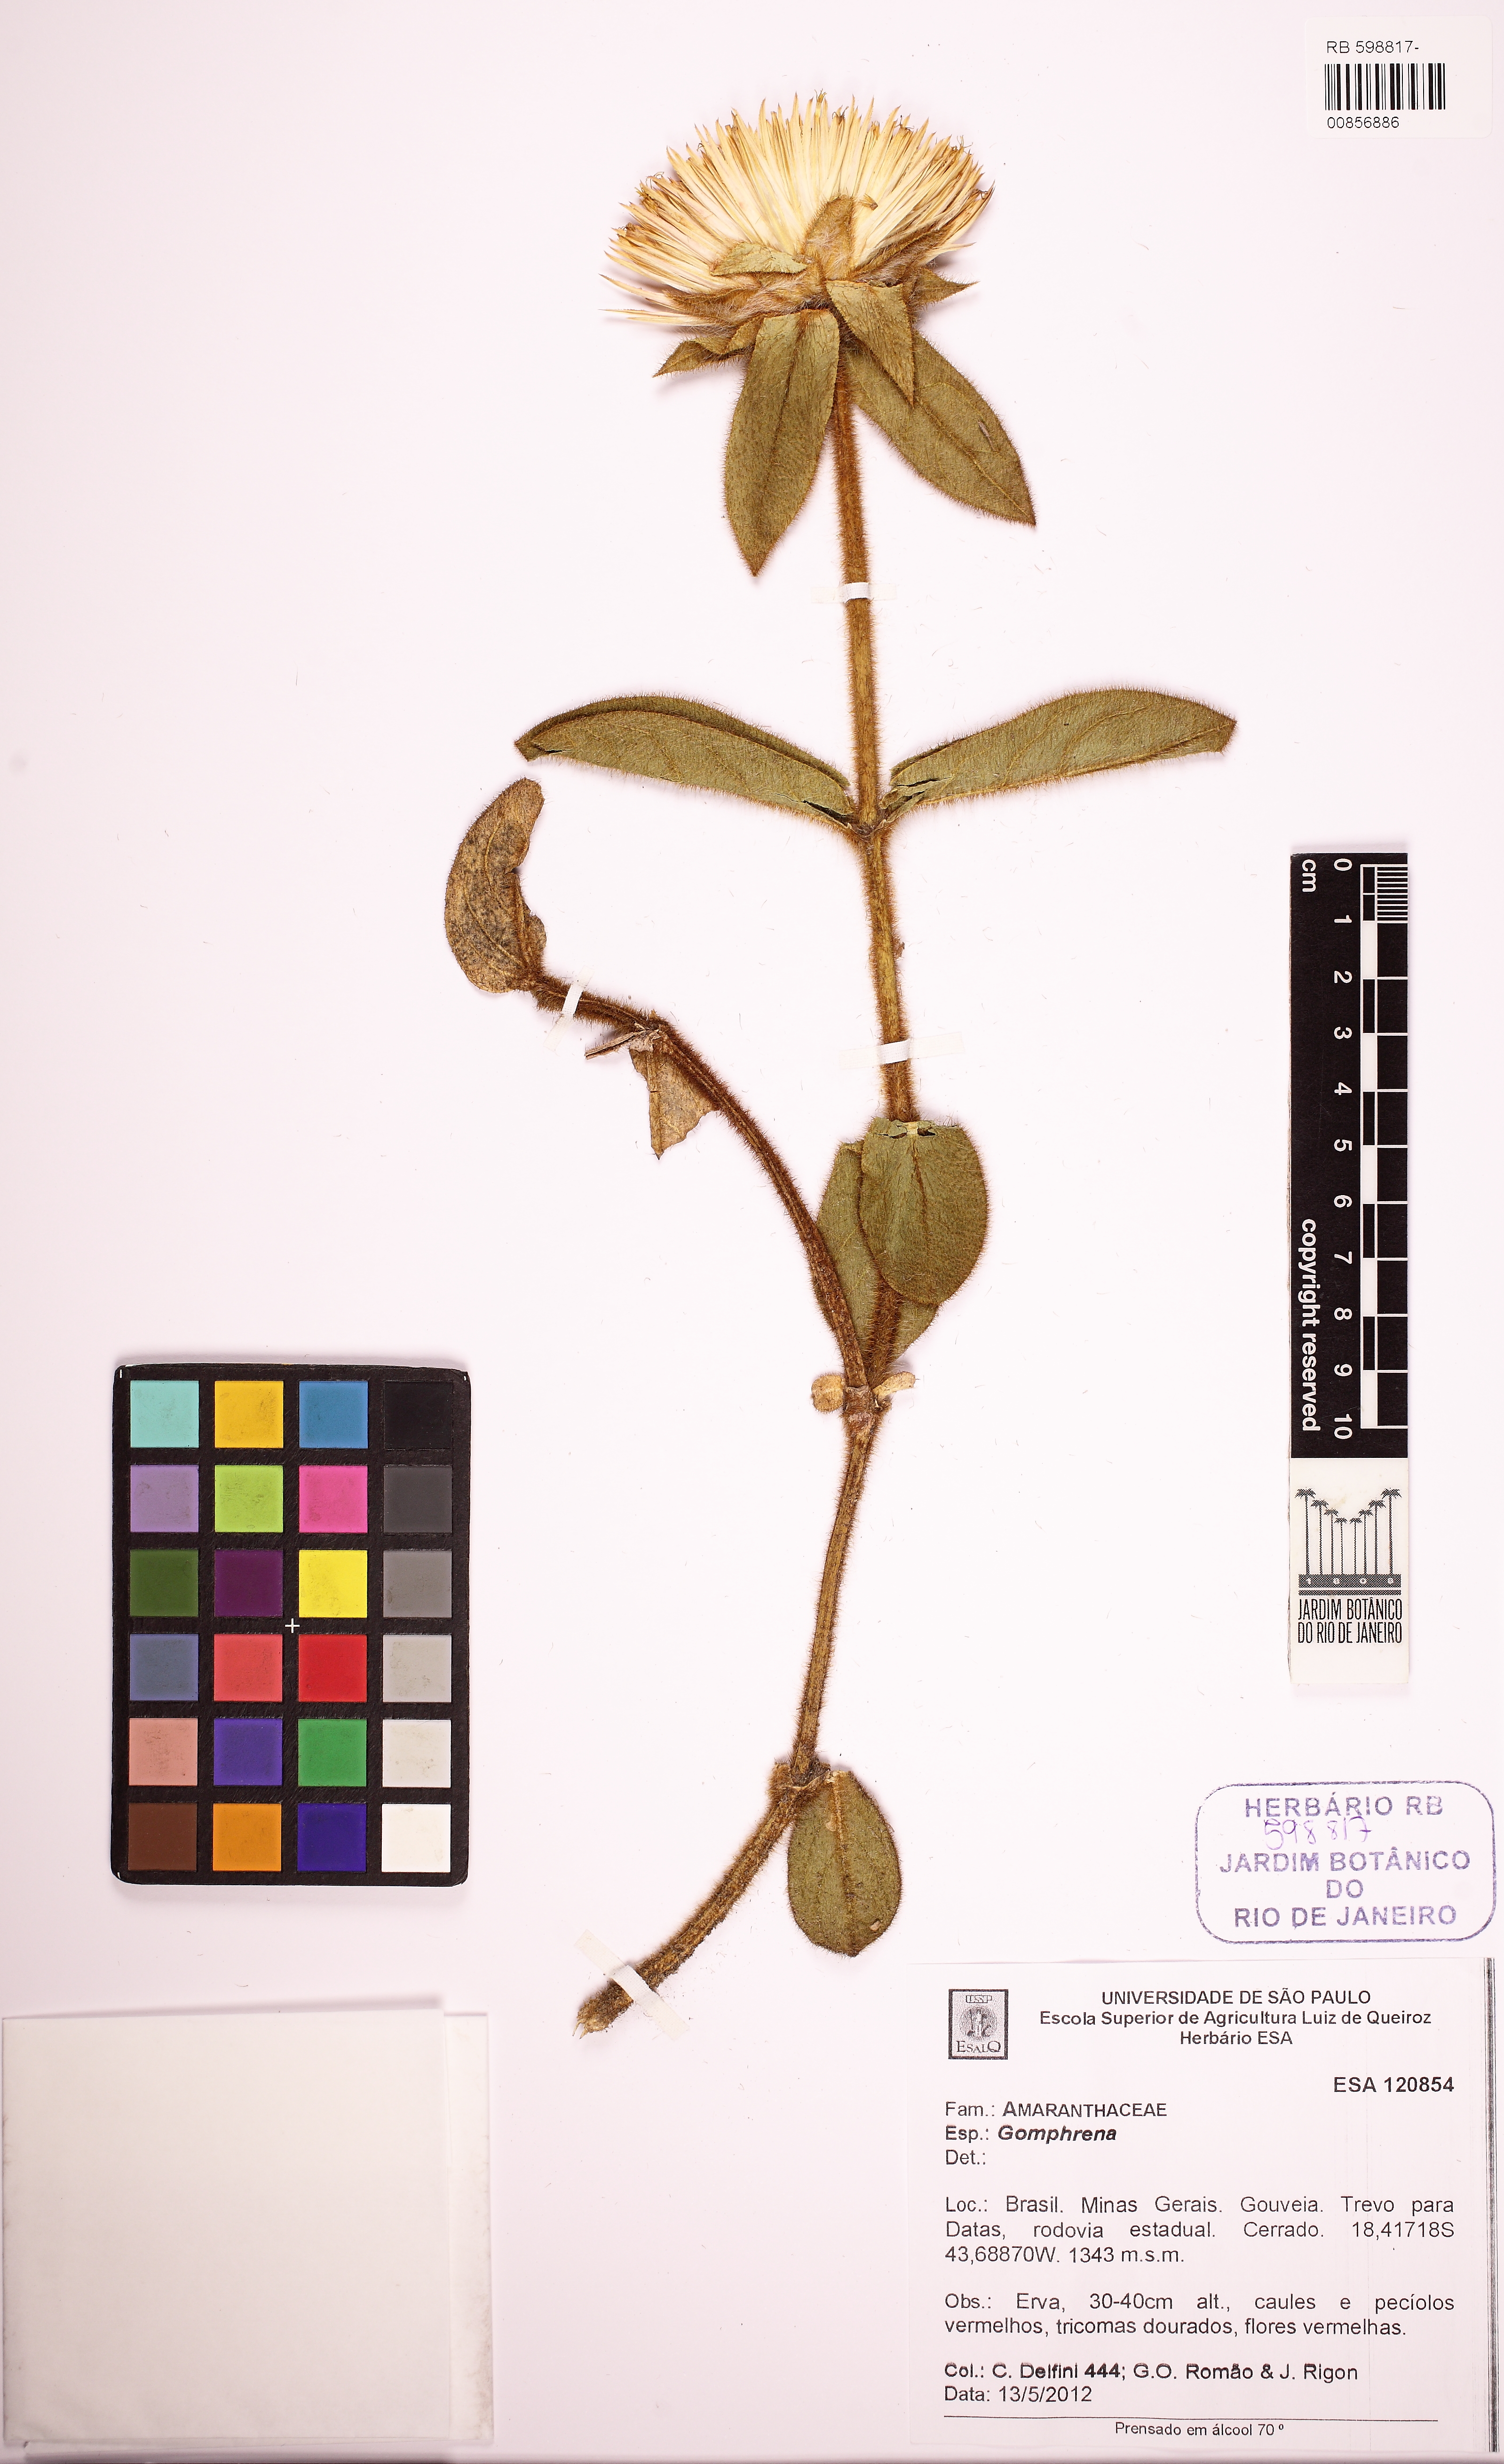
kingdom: Plantae
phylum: Tracheophyta
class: Magnoliopsida
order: Caryophyllales
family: Amaranthaceae
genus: Gomphrena
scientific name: Gomphrena
